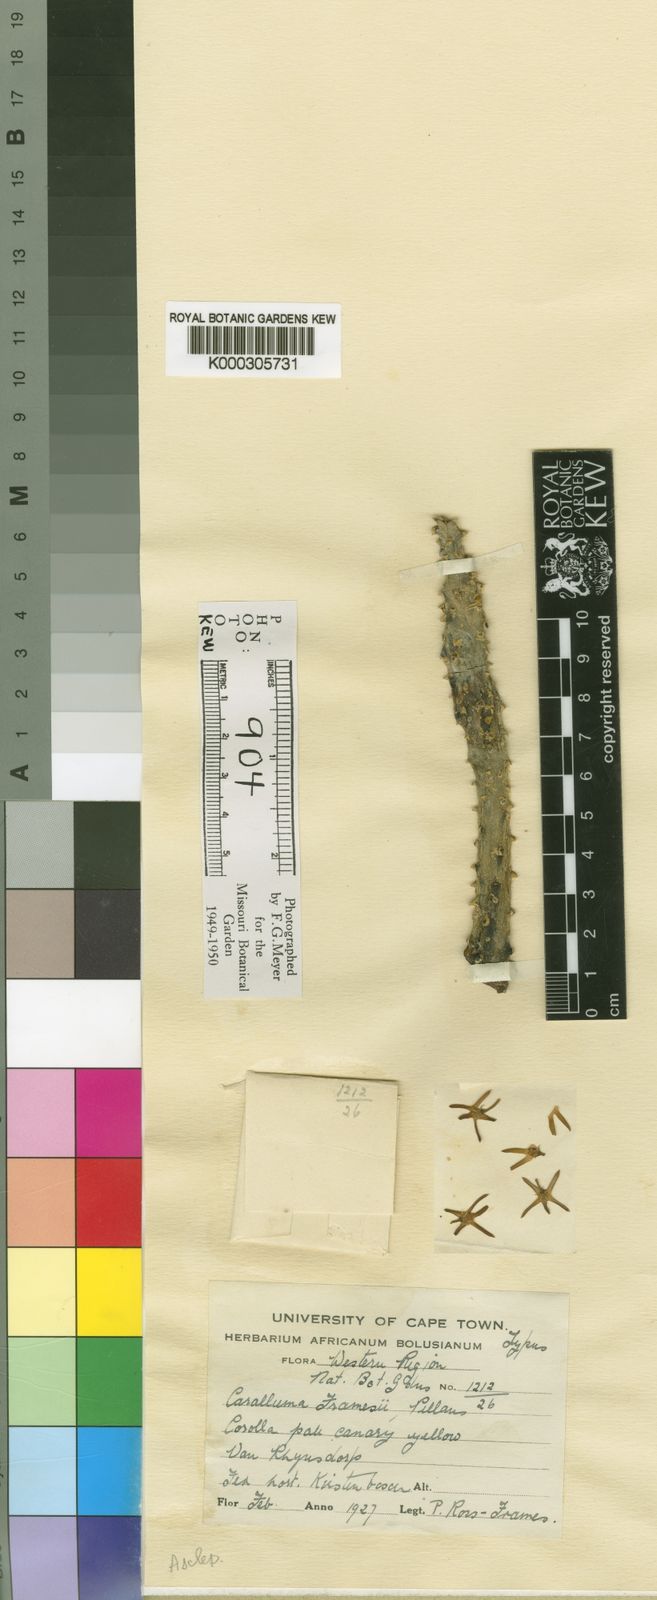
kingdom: Plantae
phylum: Tracheophyta
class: Magnoliopsida
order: Gentianales
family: Apocynaceae
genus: Ceropegia
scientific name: Ceropegia framesii
